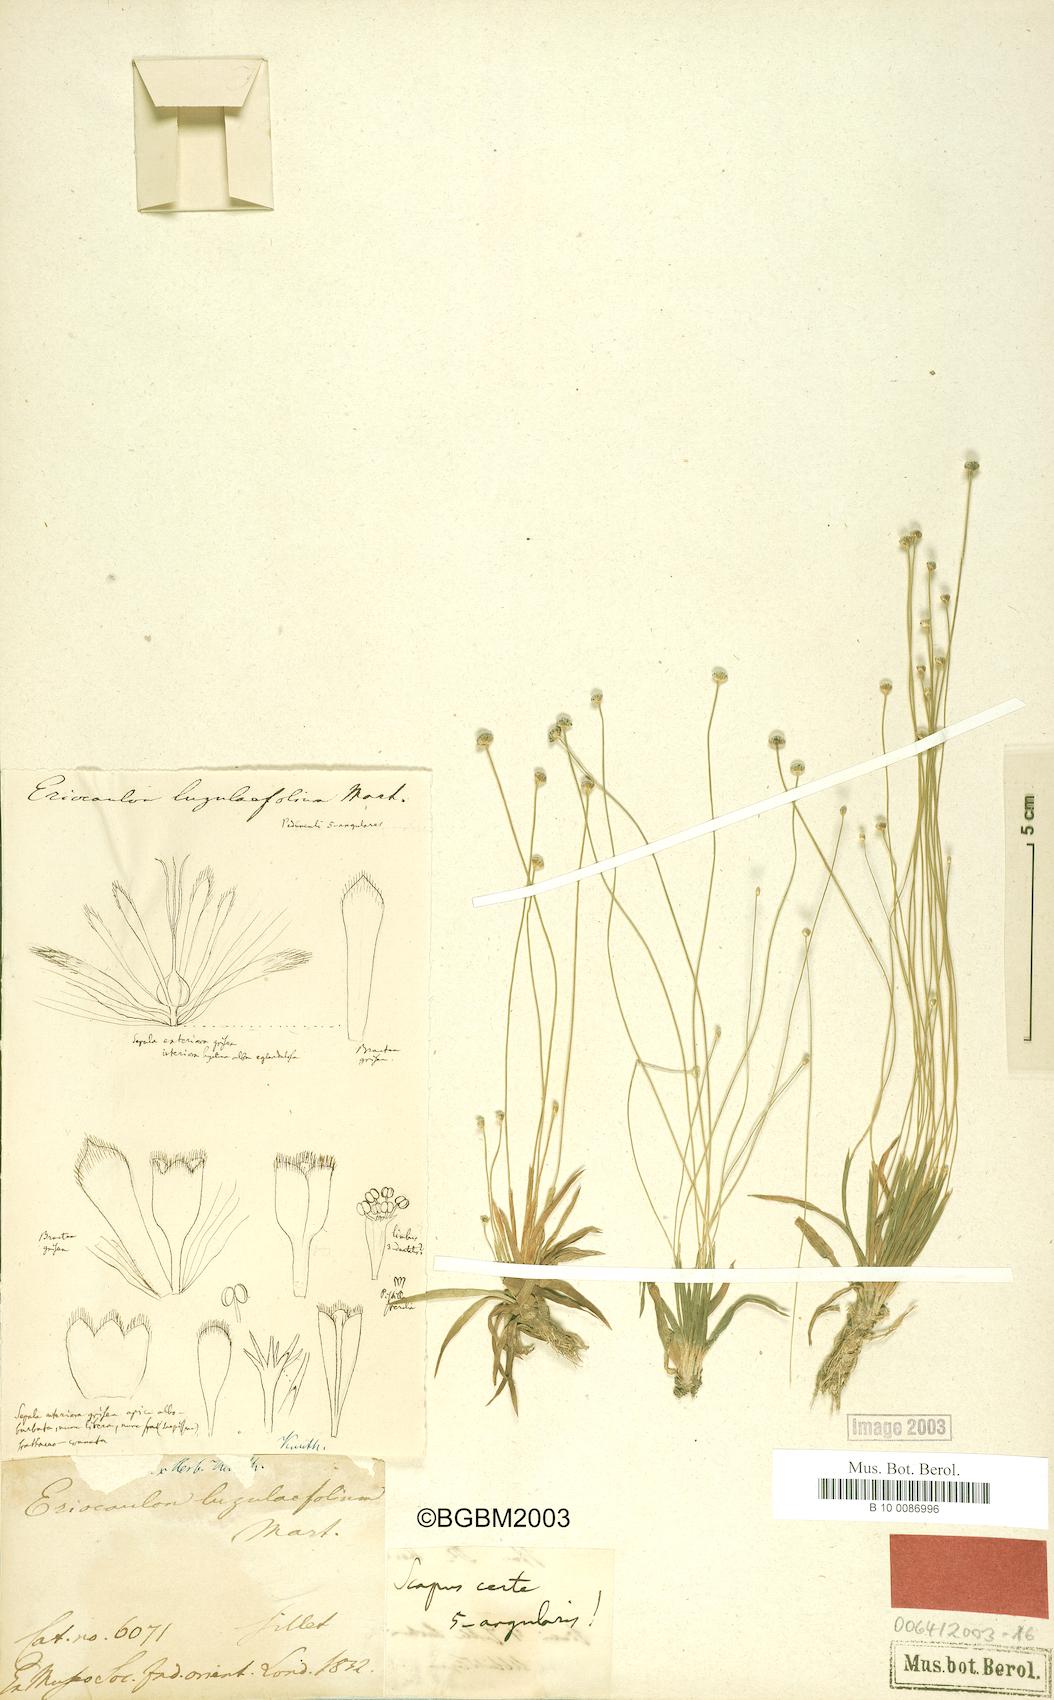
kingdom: Plantae
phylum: Tracheophyta
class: Liliopsida
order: Poales
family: Eriocaulaceae
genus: Eriocaulon
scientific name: Eriocaulon nepalense
